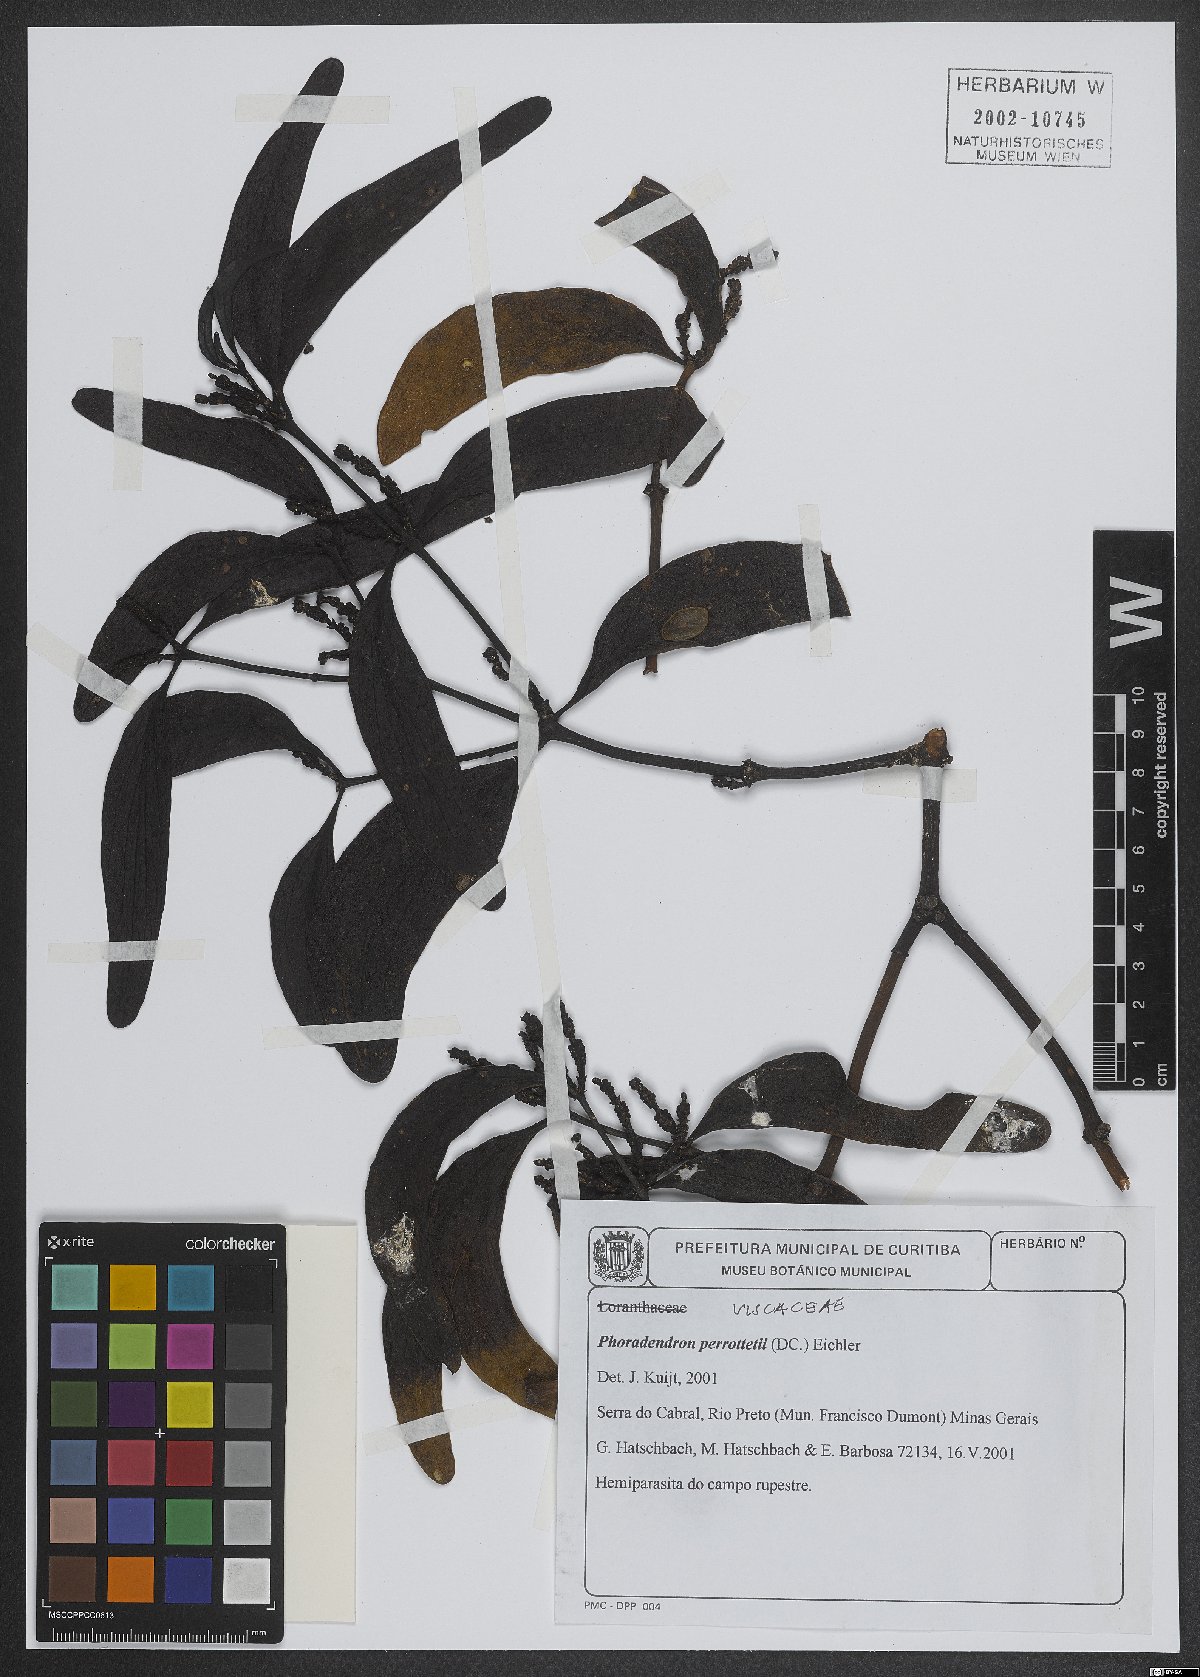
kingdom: Plantae
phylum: Tracheophyta
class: Magnoliopsida
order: Santalales
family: Viscaceae
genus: Phoradendron
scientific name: Phoradendron perrottetii
